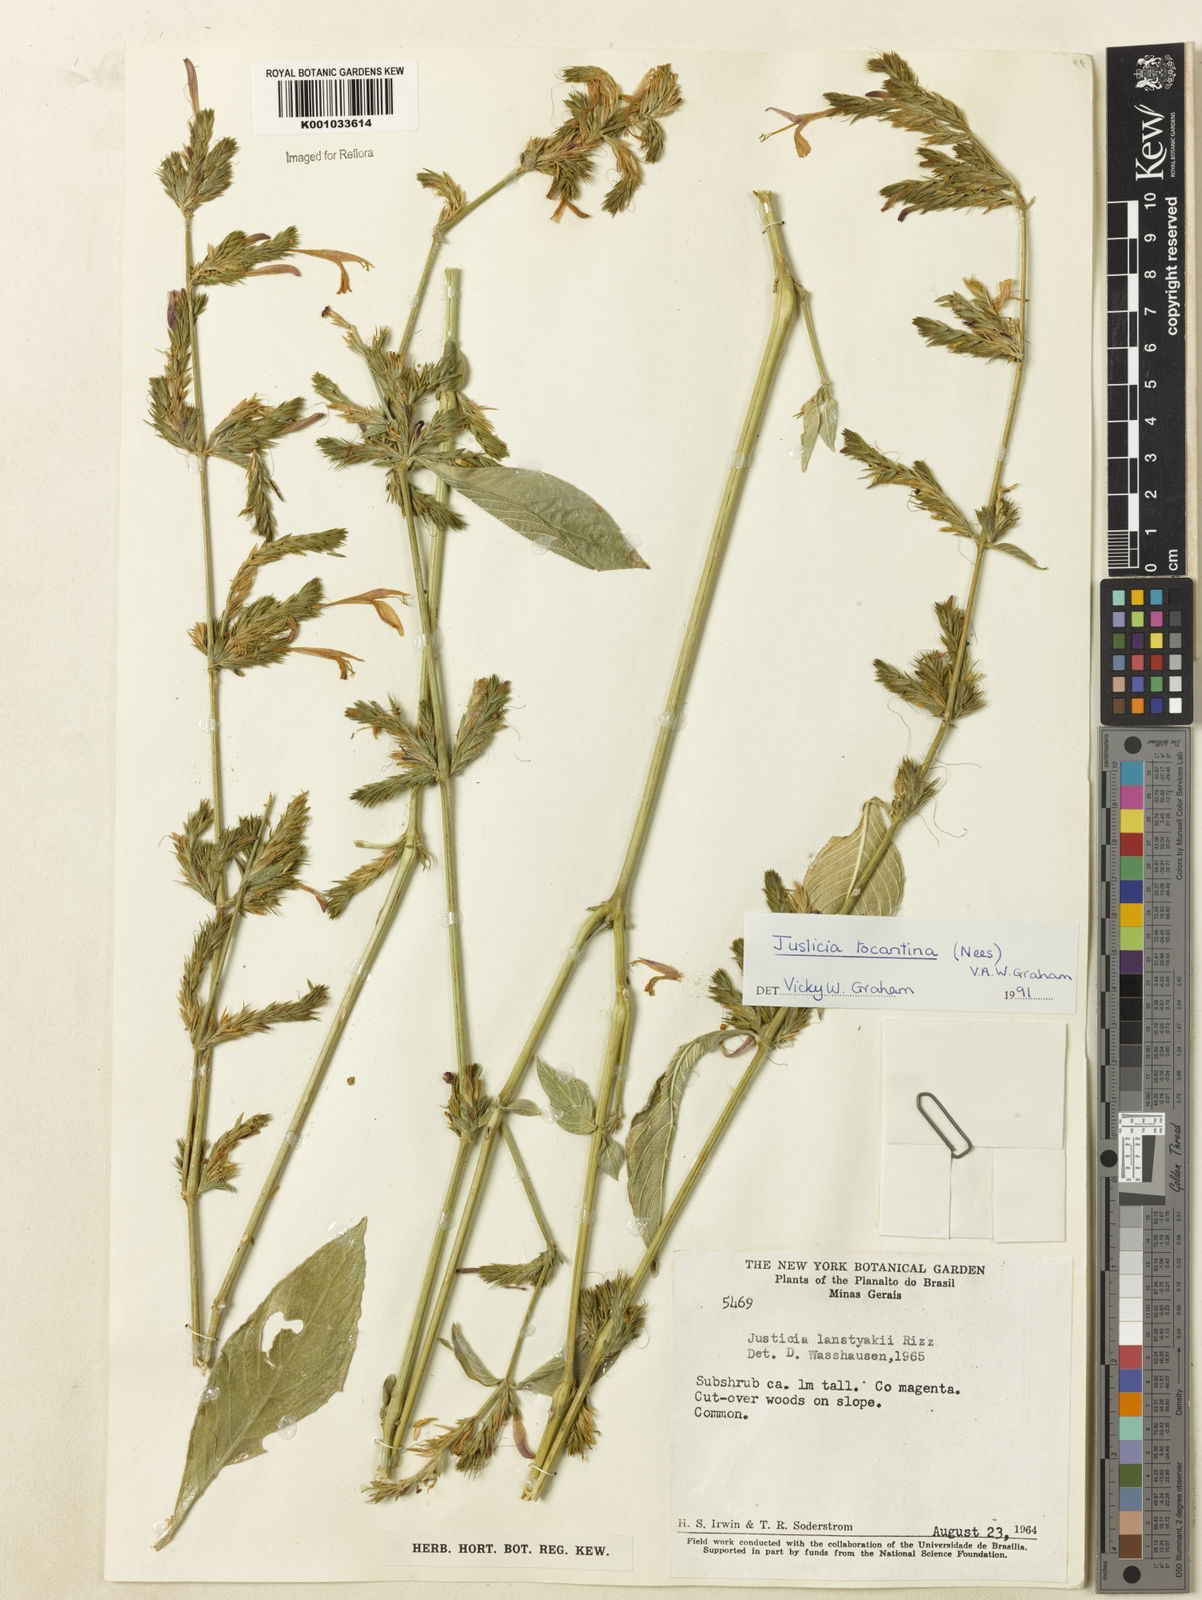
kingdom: Plantae
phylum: Tracheophyta
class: Magnoliopsida
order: Lamiales
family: Acanthaceae
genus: Justicia
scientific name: Justicia tocantina
